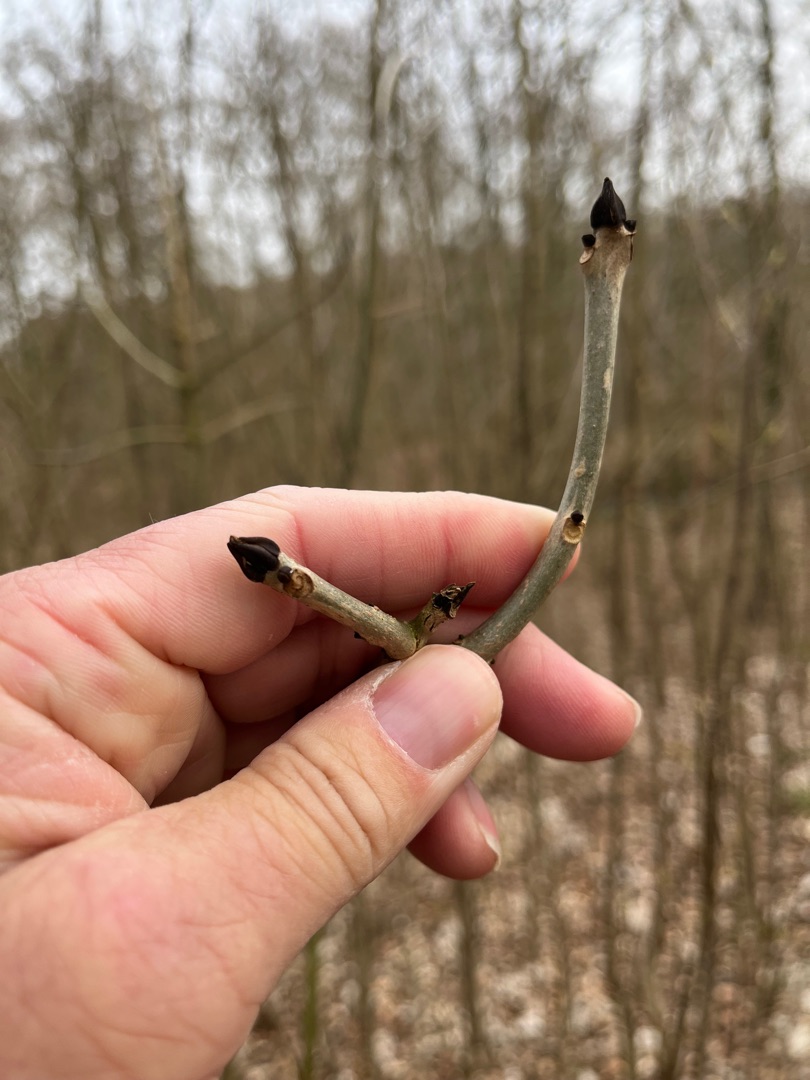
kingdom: Plantae
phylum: Tracheophyta
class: Magnoliopsida
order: Lamiales
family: Oleaceae
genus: Fraxinus
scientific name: Fraxinus excelsior
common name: Ask
